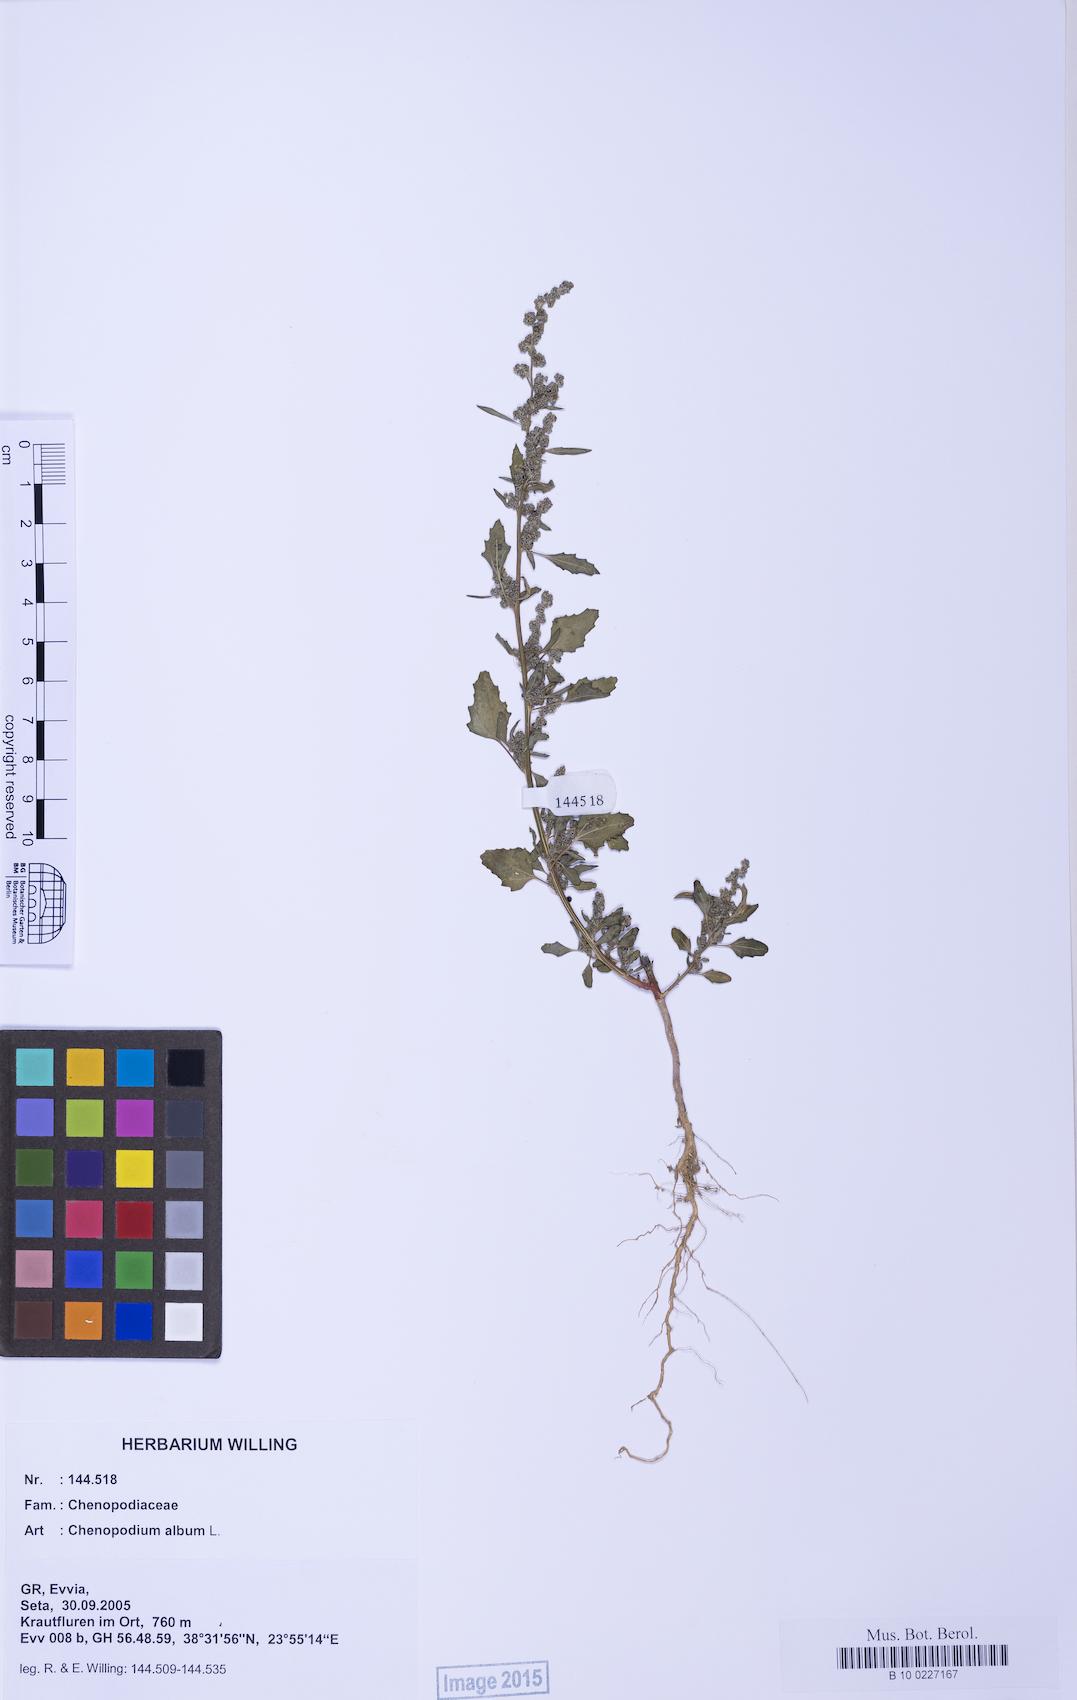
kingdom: Plantae
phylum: Tracheophyta
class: Magnoliopsida
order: Caryophyllales
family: Amaranthaceae
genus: Chenopodium
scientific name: Chenopodium album
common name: Fat-hen
